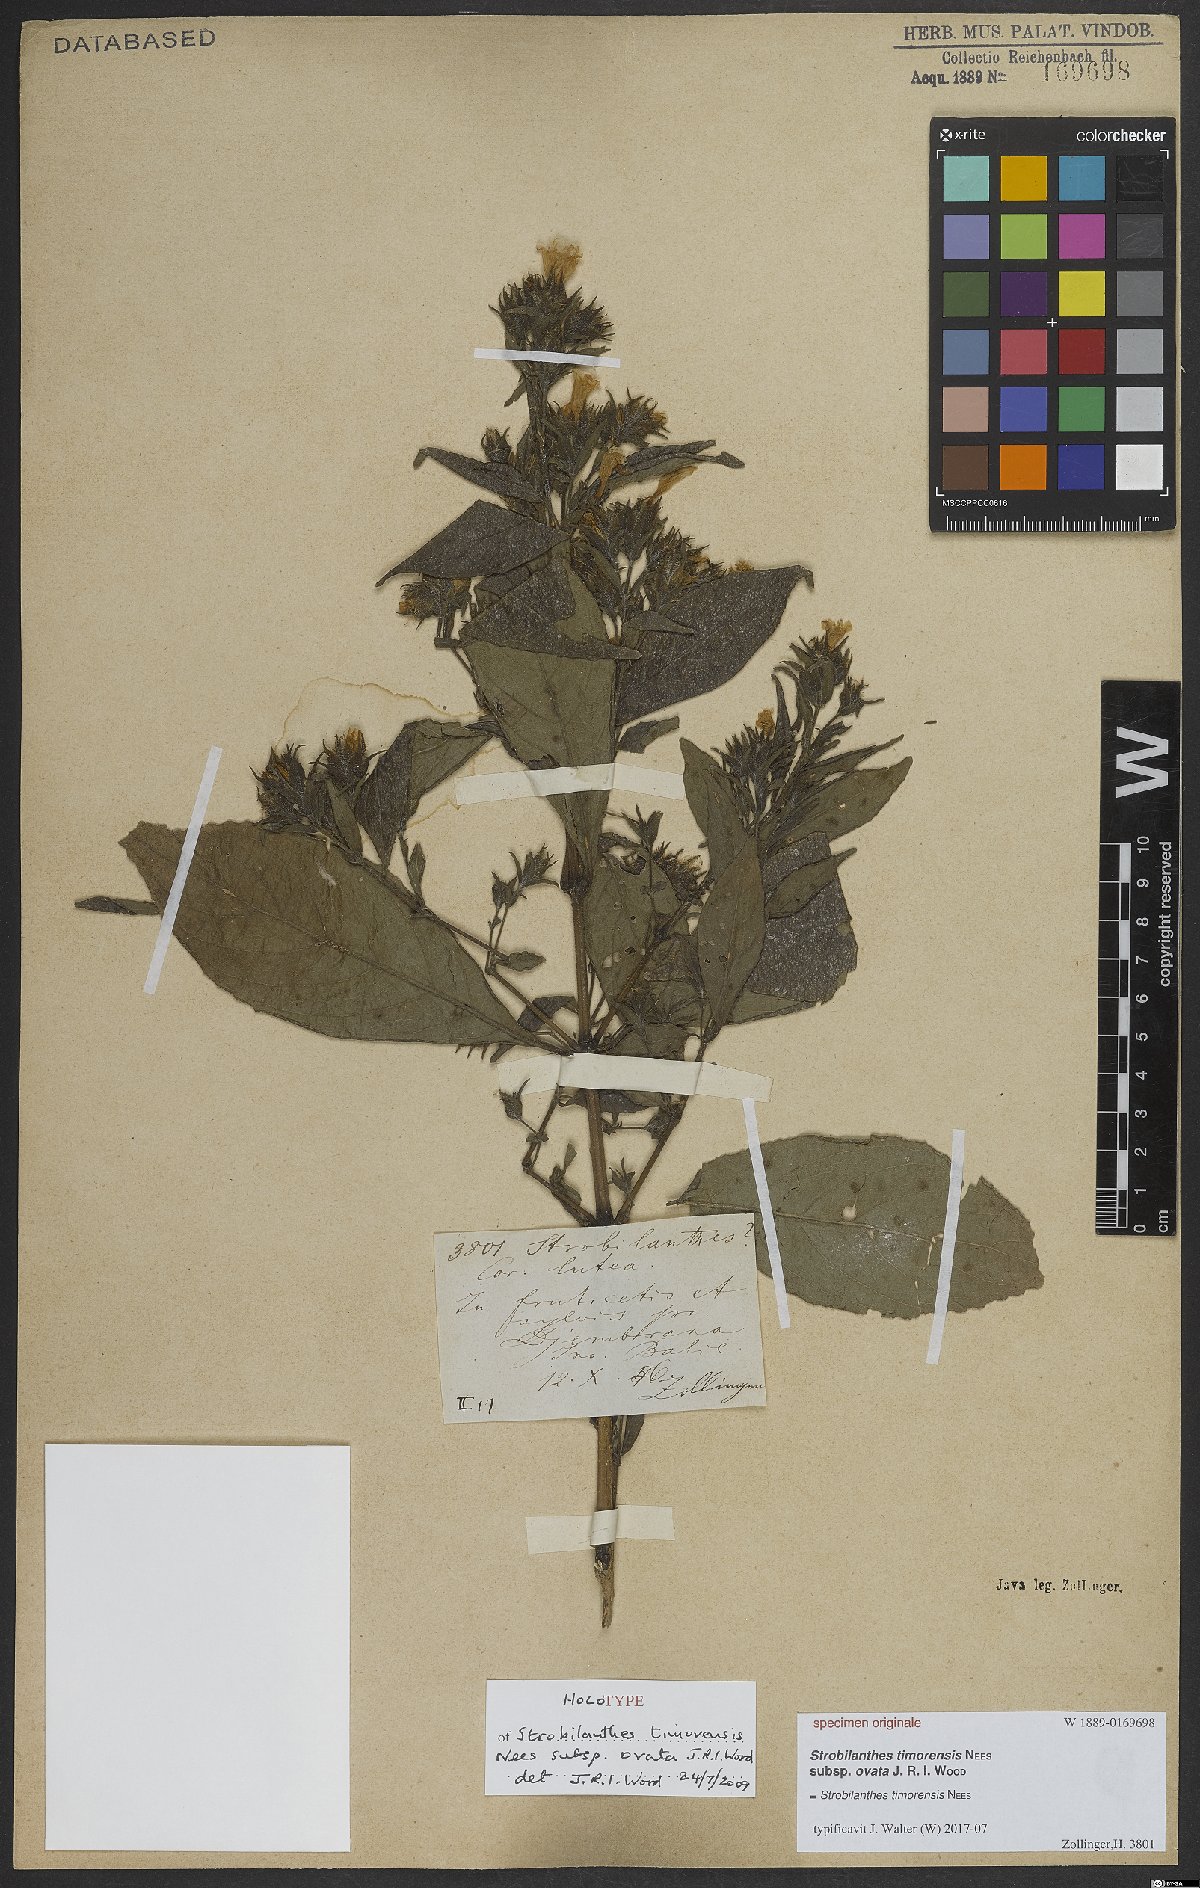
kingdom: Plantae
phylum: Tracheophyta
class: Magnoliopsida
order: Lamiales
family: Acanthaceae
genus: Strobilanthes
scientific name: Strobilanthes timorensis
